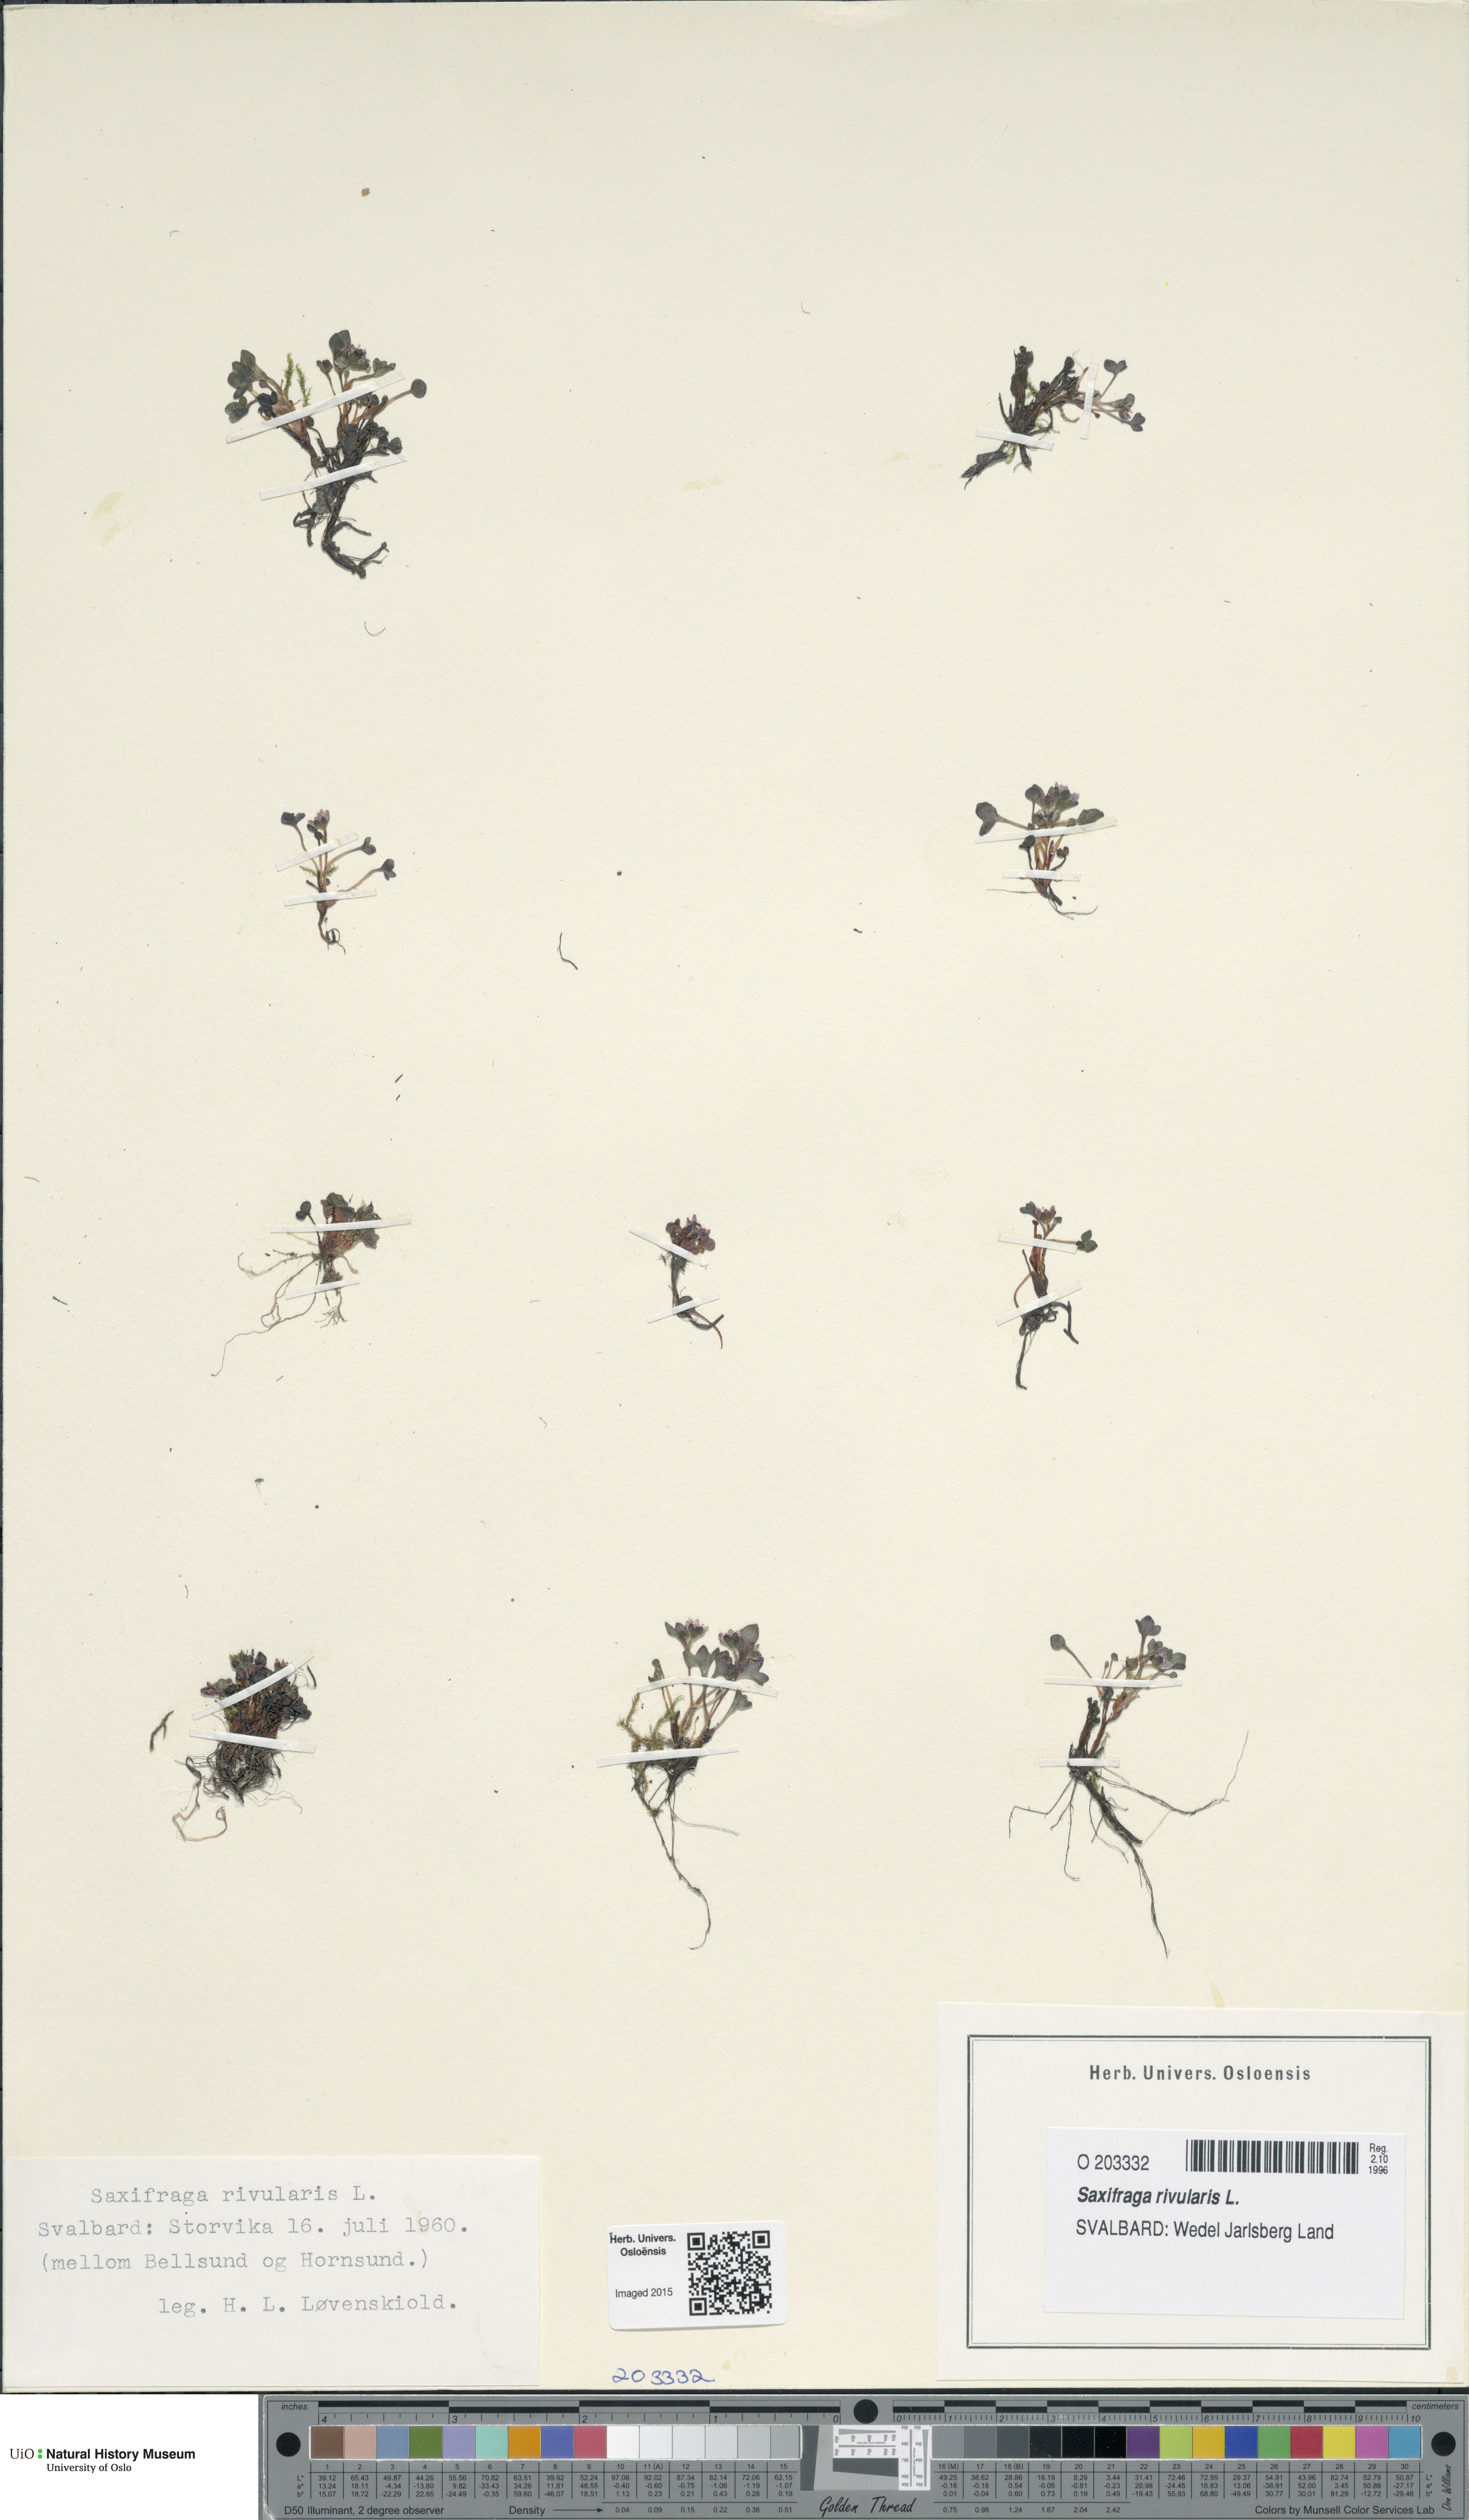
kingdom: Plantae
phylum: Tracheophyta
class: Magnoliopsida
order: Saxifragales
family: Saxifragaceae
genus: Saxifraga
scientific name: Saxifraga rivularis
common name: Highland saxifrage
